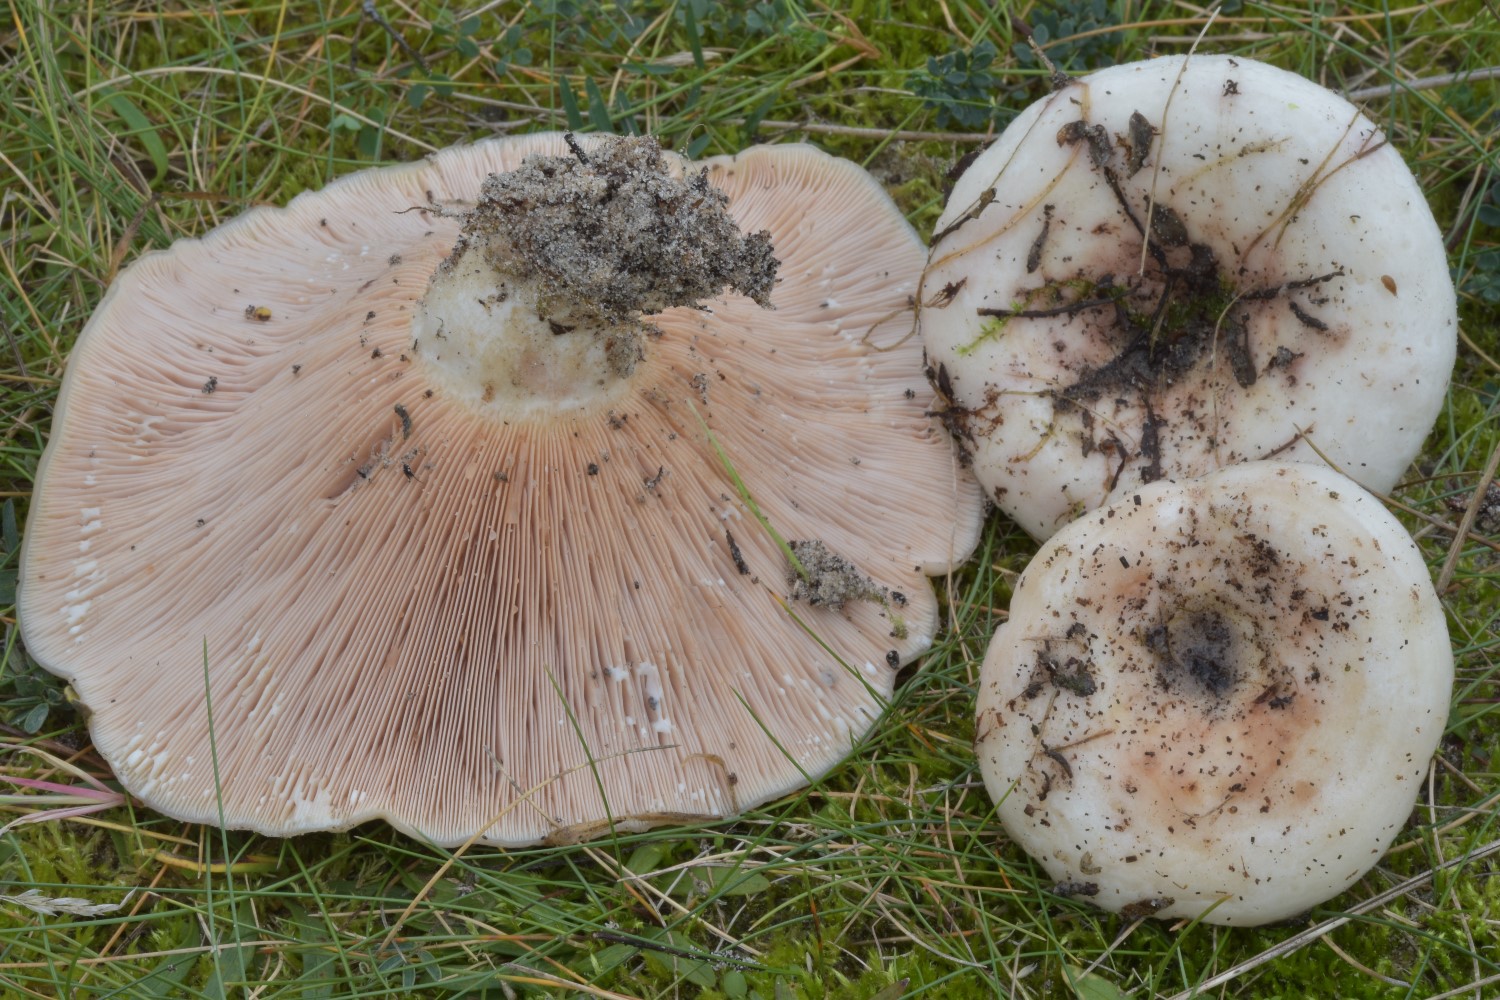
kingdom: Fungi
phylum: Basidiomycota
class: Agaricomycetes
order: Russulales
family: Russulaceae
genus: Lactarius
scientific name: Lactarius controversus
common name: rosabladet mælkehat
